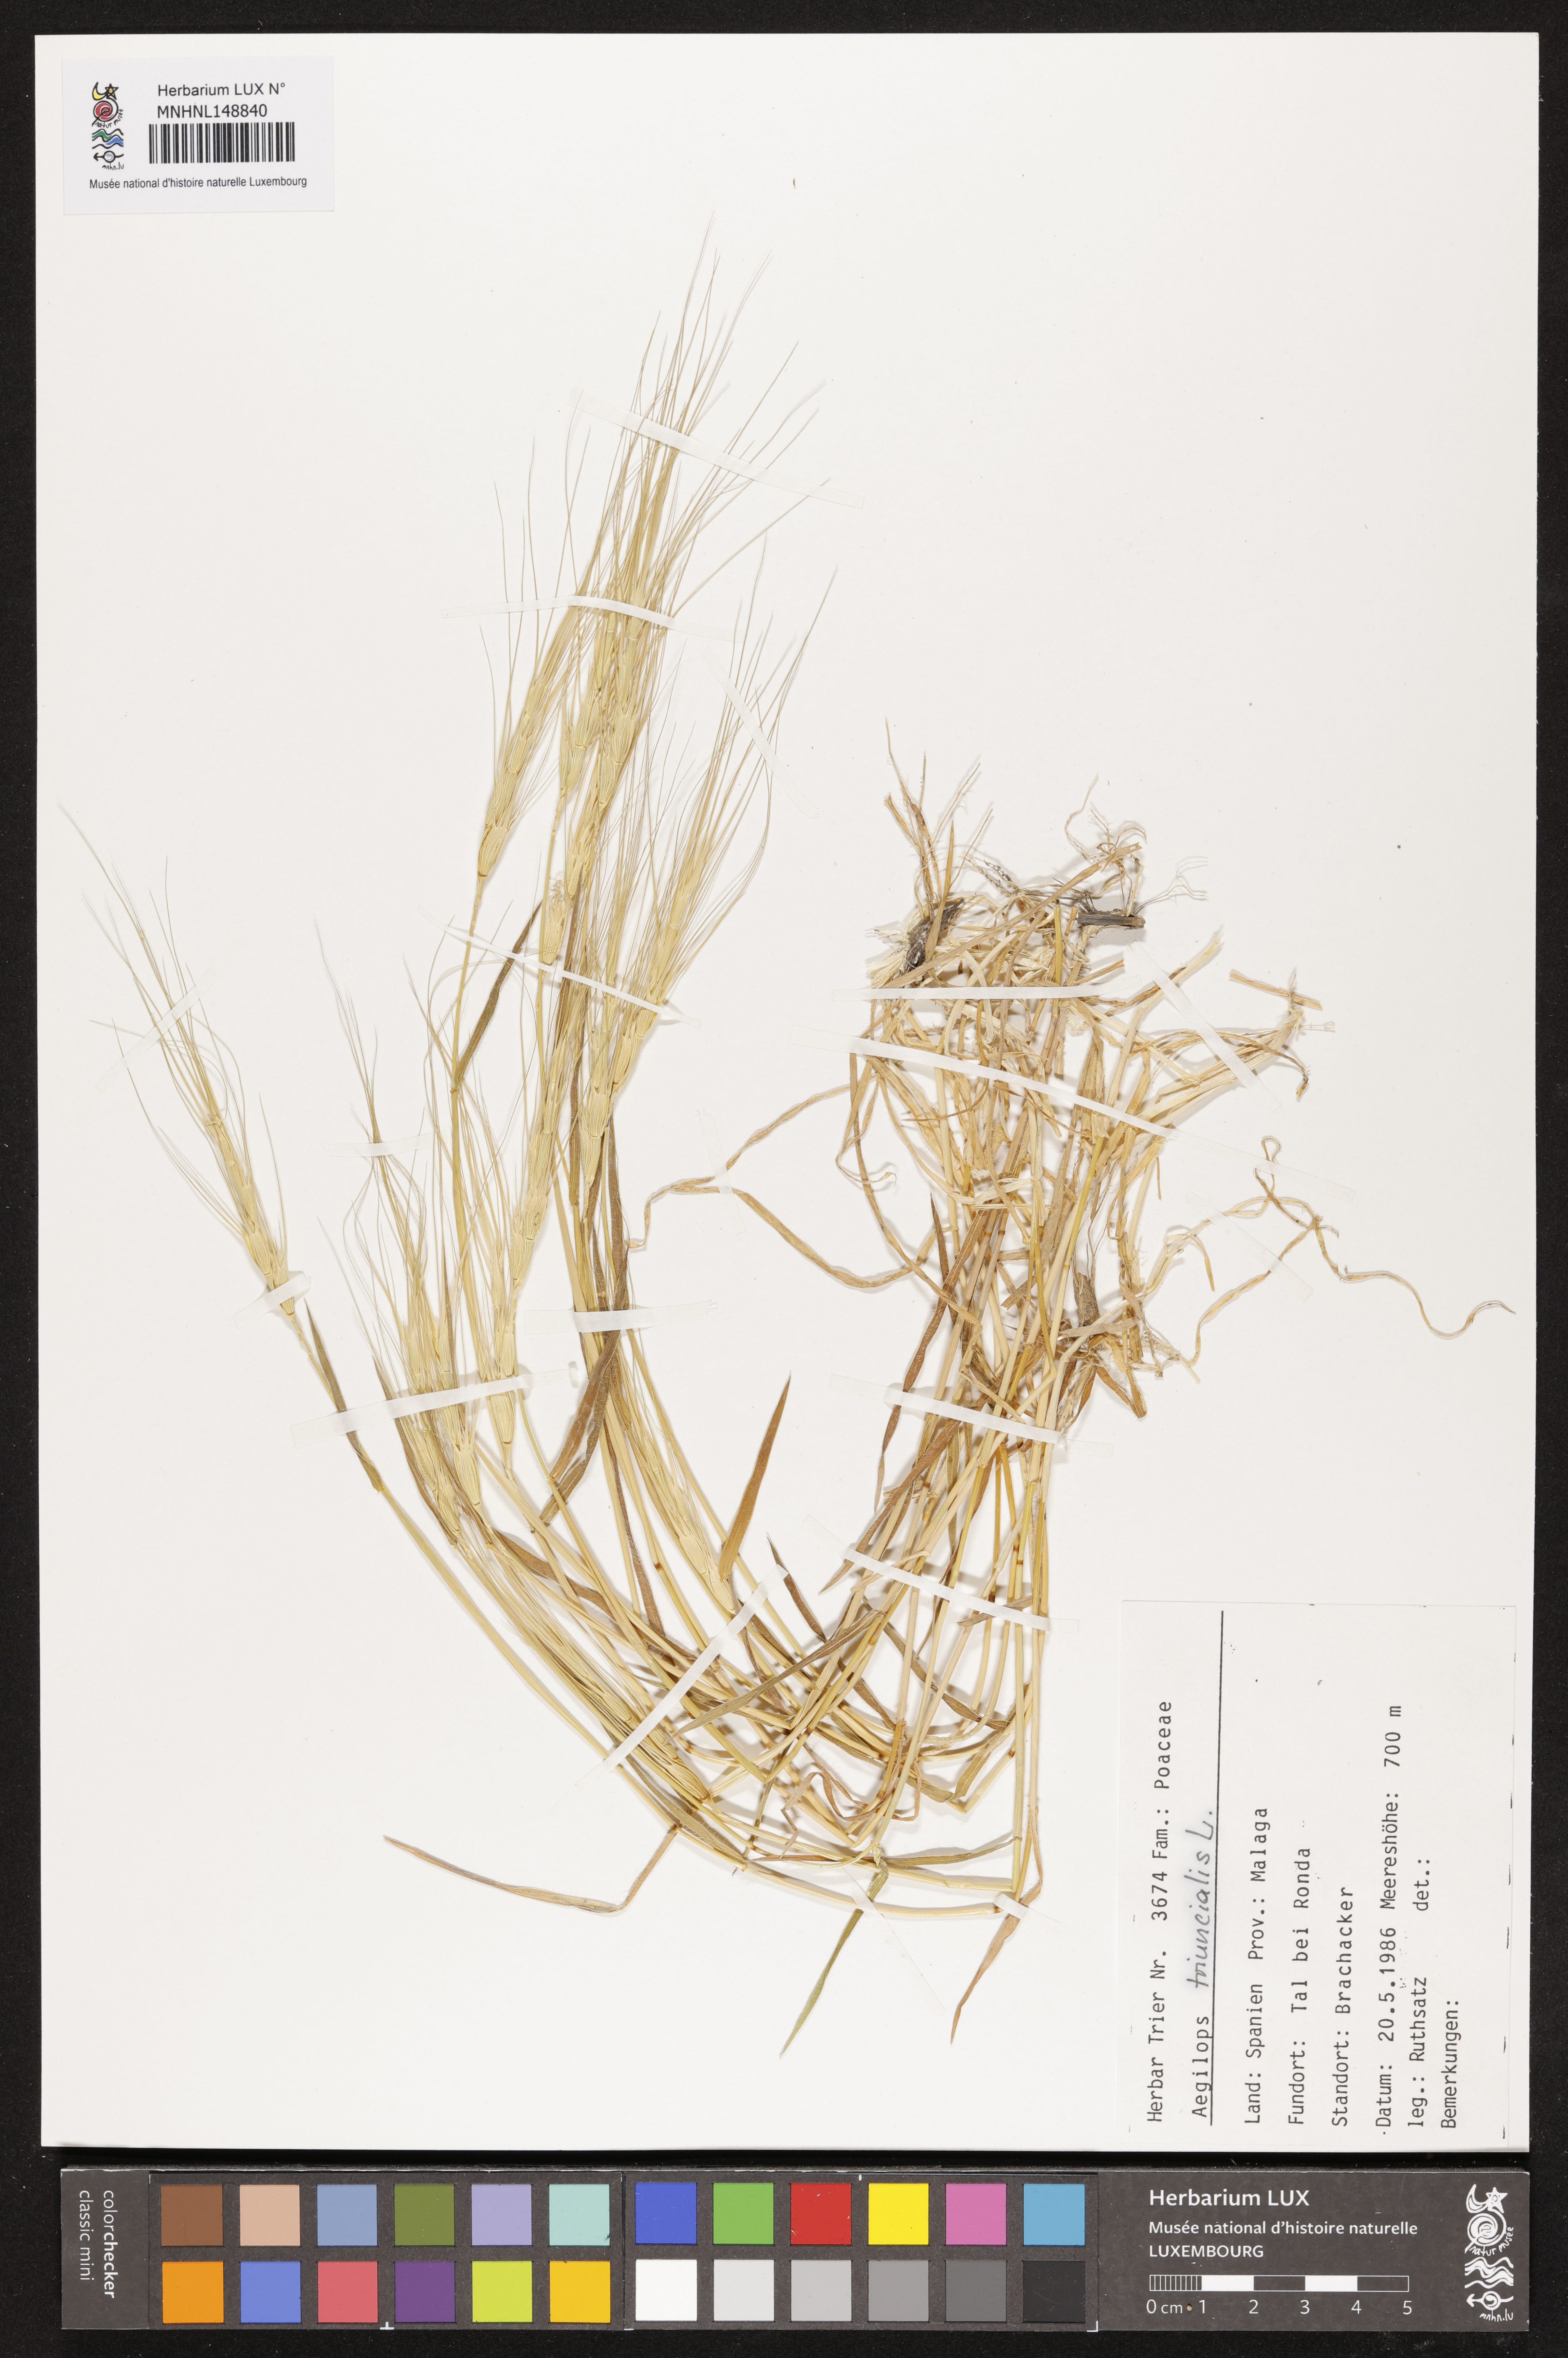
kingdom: Plantae
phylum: Tracheophyta
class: Liliopsida
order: Poales
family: Poaceae
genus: Aegilops
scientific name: Aegilops triuncialis
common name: Barb goat grass
